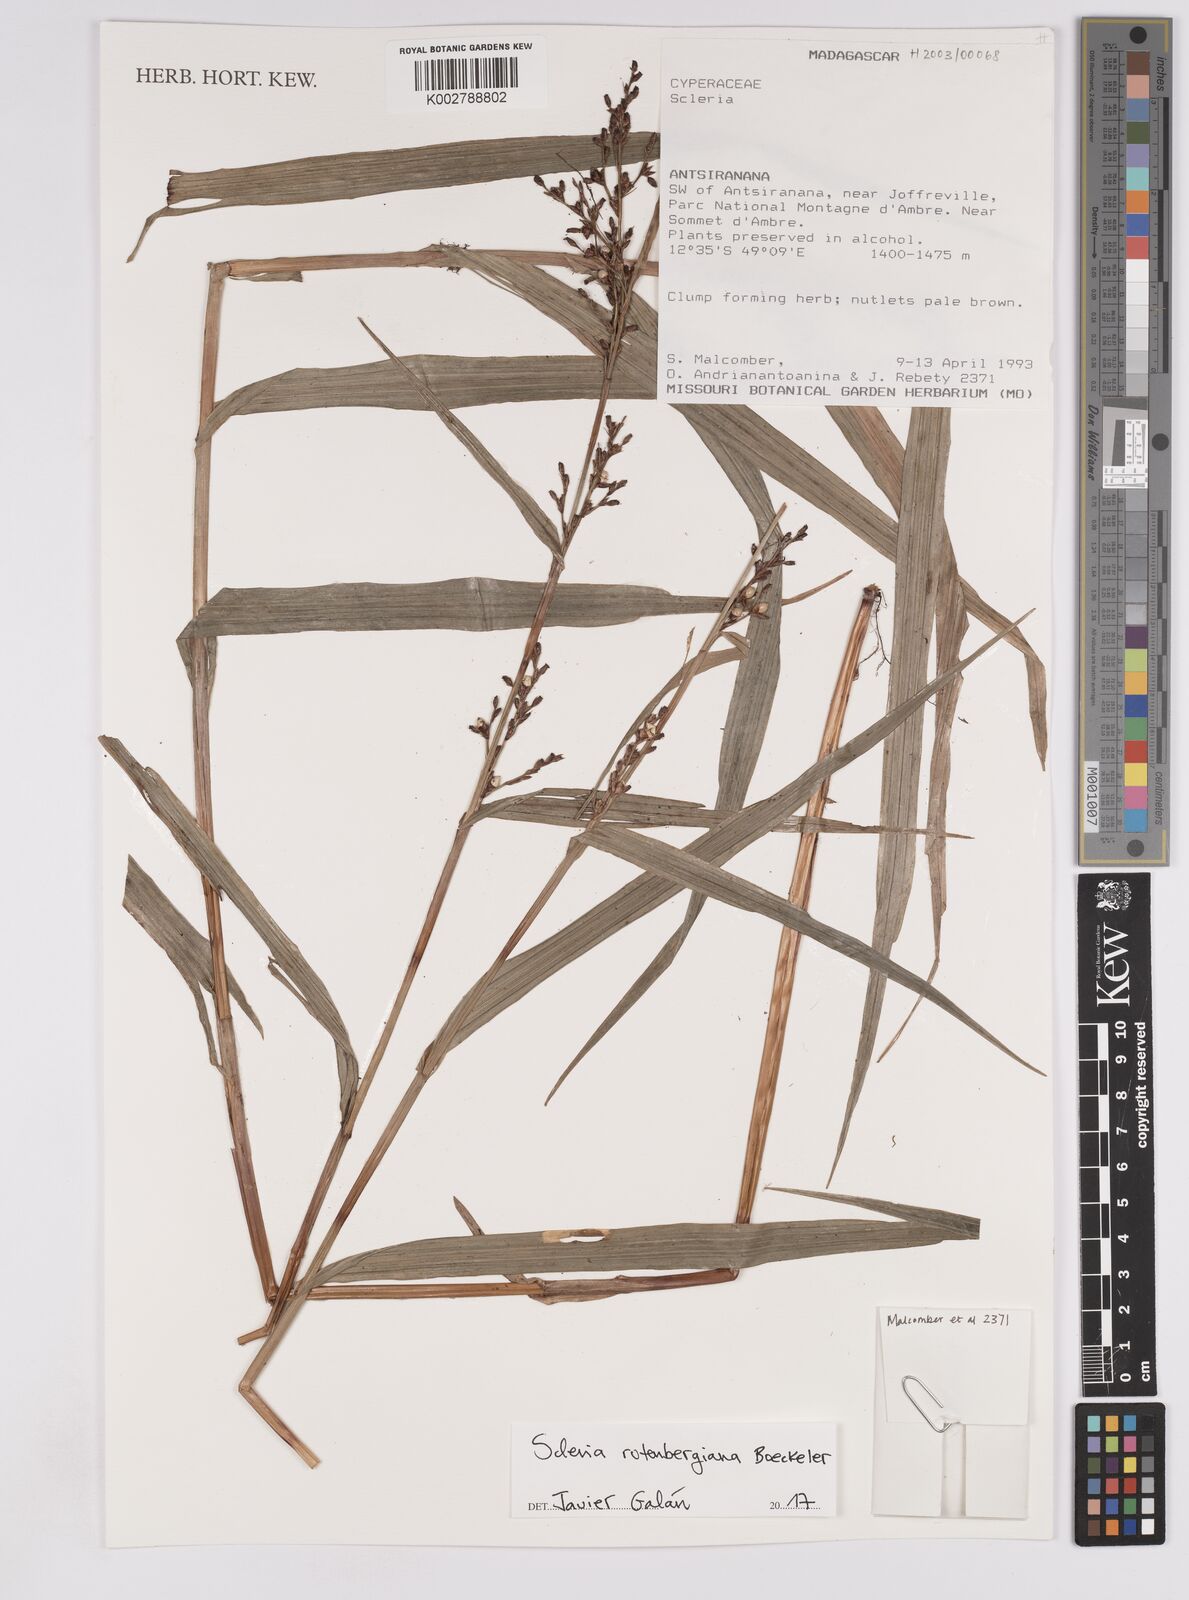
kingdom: Plantae
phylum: Tracheophyta
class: Liliopsida
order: Poales
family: Cyperaceae
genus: Scleria
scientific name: Scleria rutenbergiana
